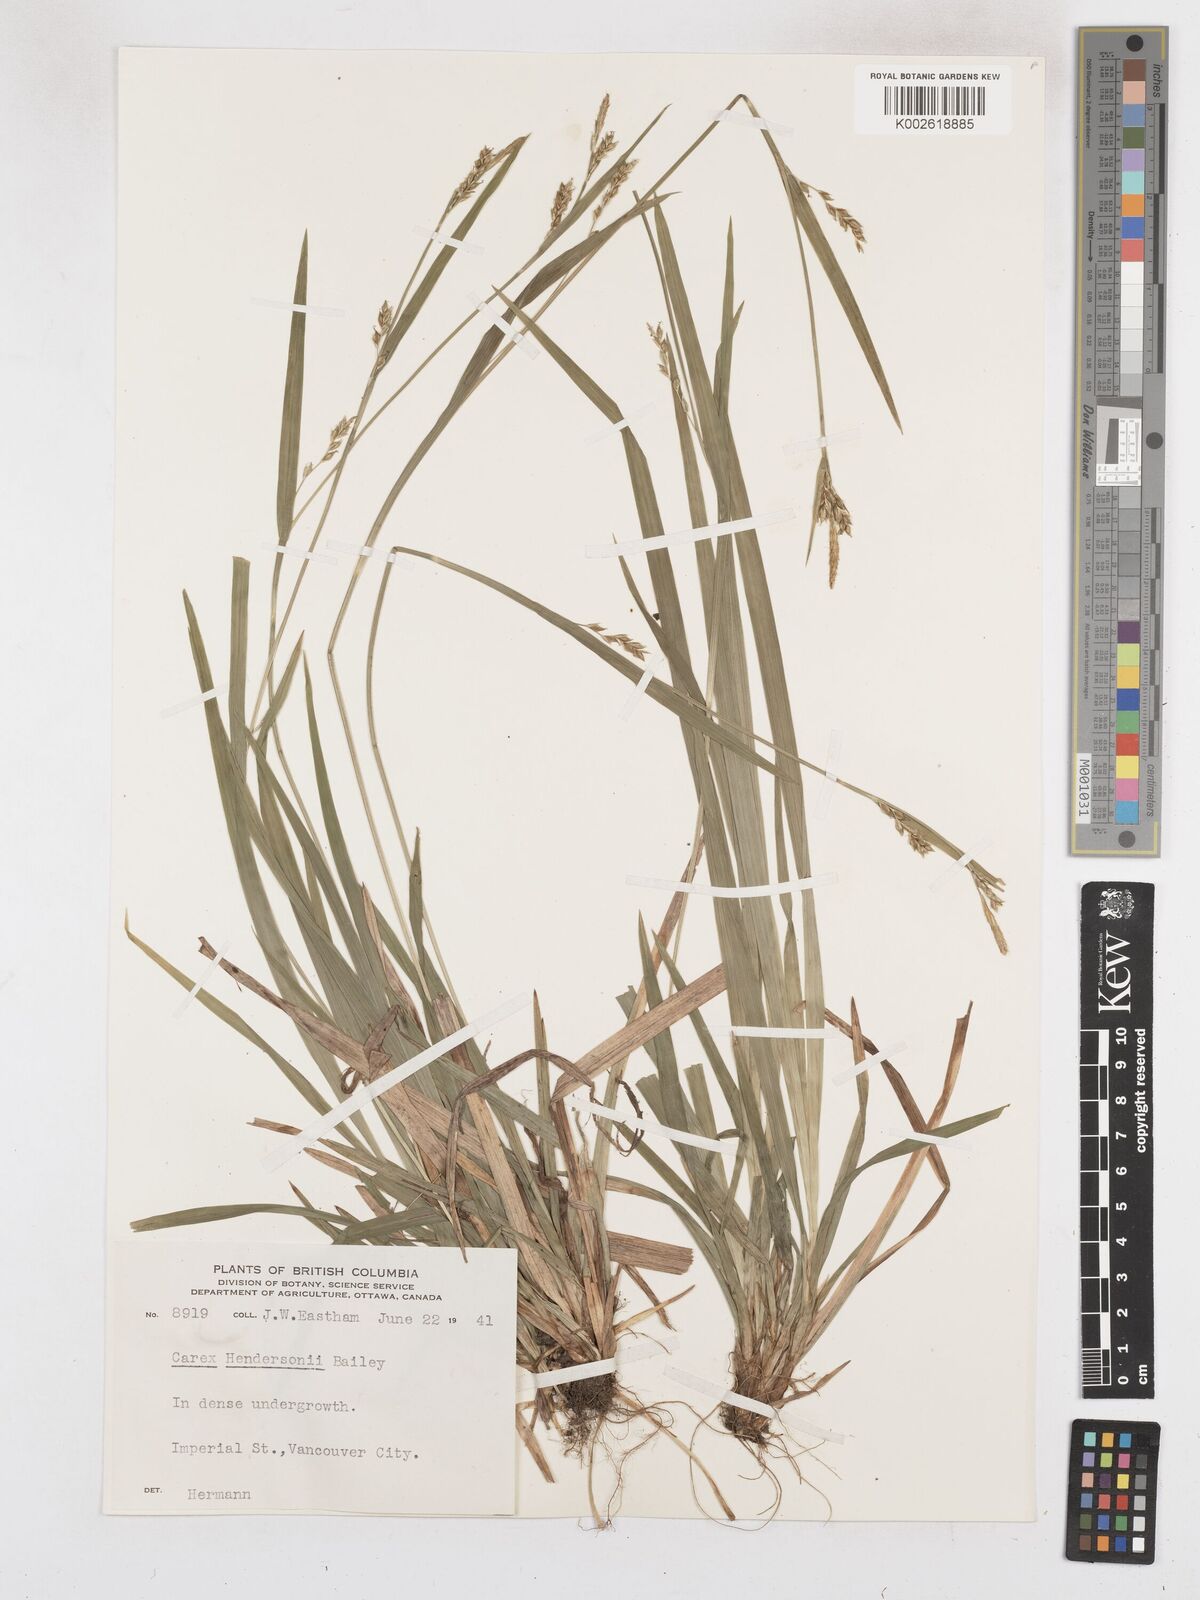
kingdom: Plantae
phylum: Tracheophyta
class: Liliopsida
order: Poales
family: Cyperaceae
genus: Carex
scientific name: Carex hendersonii
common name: Henderson's sedge
